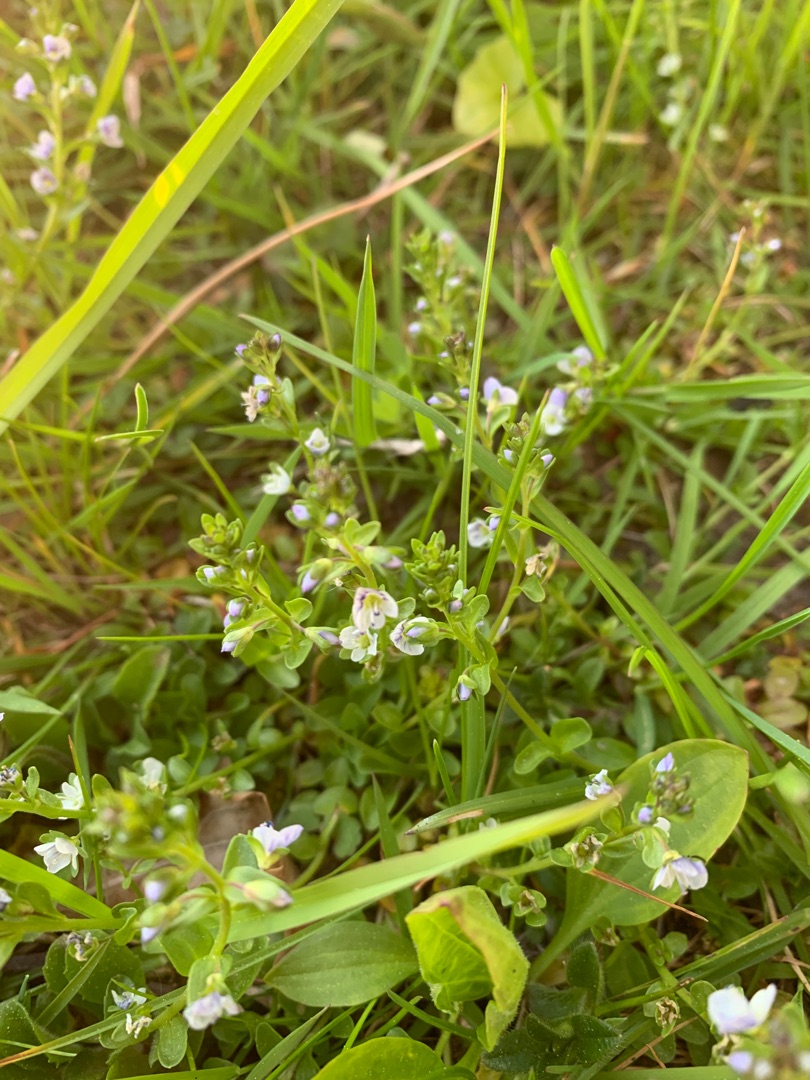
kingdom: Plantae
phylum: Tracheophyta
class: Magnoliopsida
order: Lamiales
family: Plantaginaceae
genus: Veronica
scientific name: Veronica serpyllifolia
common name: Glat ærenpris
